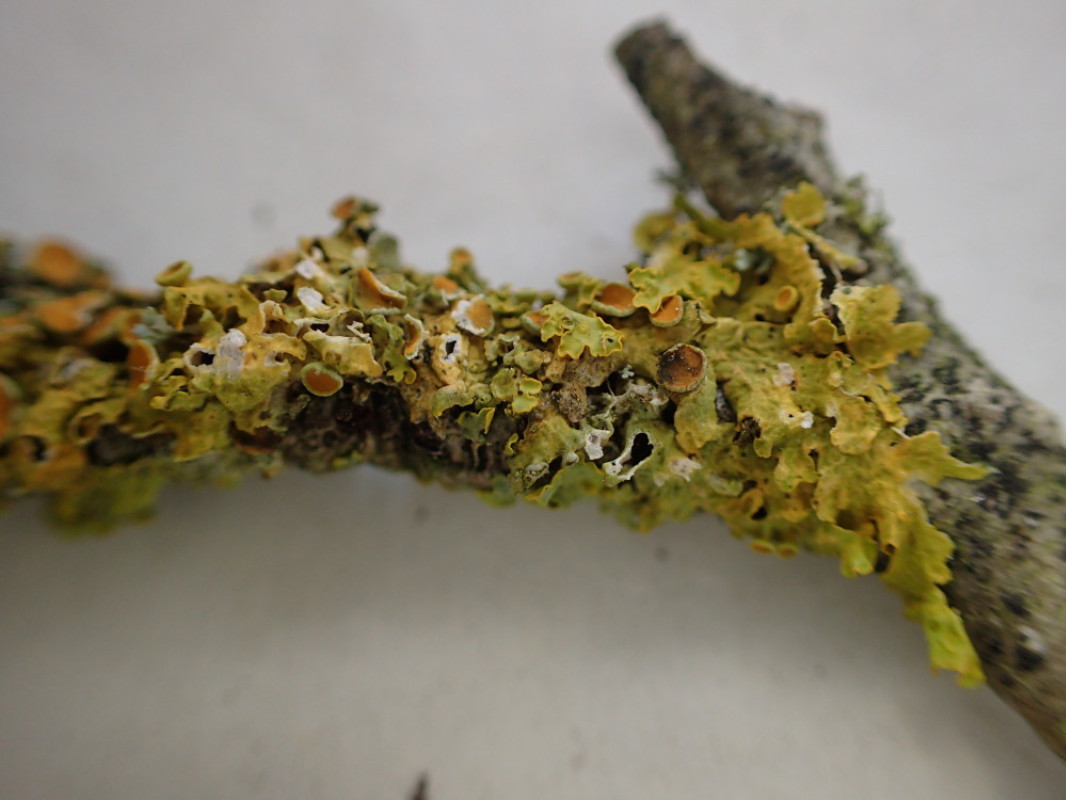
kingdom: Fungi
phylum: Ascomycota
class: Lecanoromycetes
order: Teloschistales
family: Teloschistaceae
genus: Xanthoria
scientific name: Xanthoria parietina
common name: almindelig væggelav
